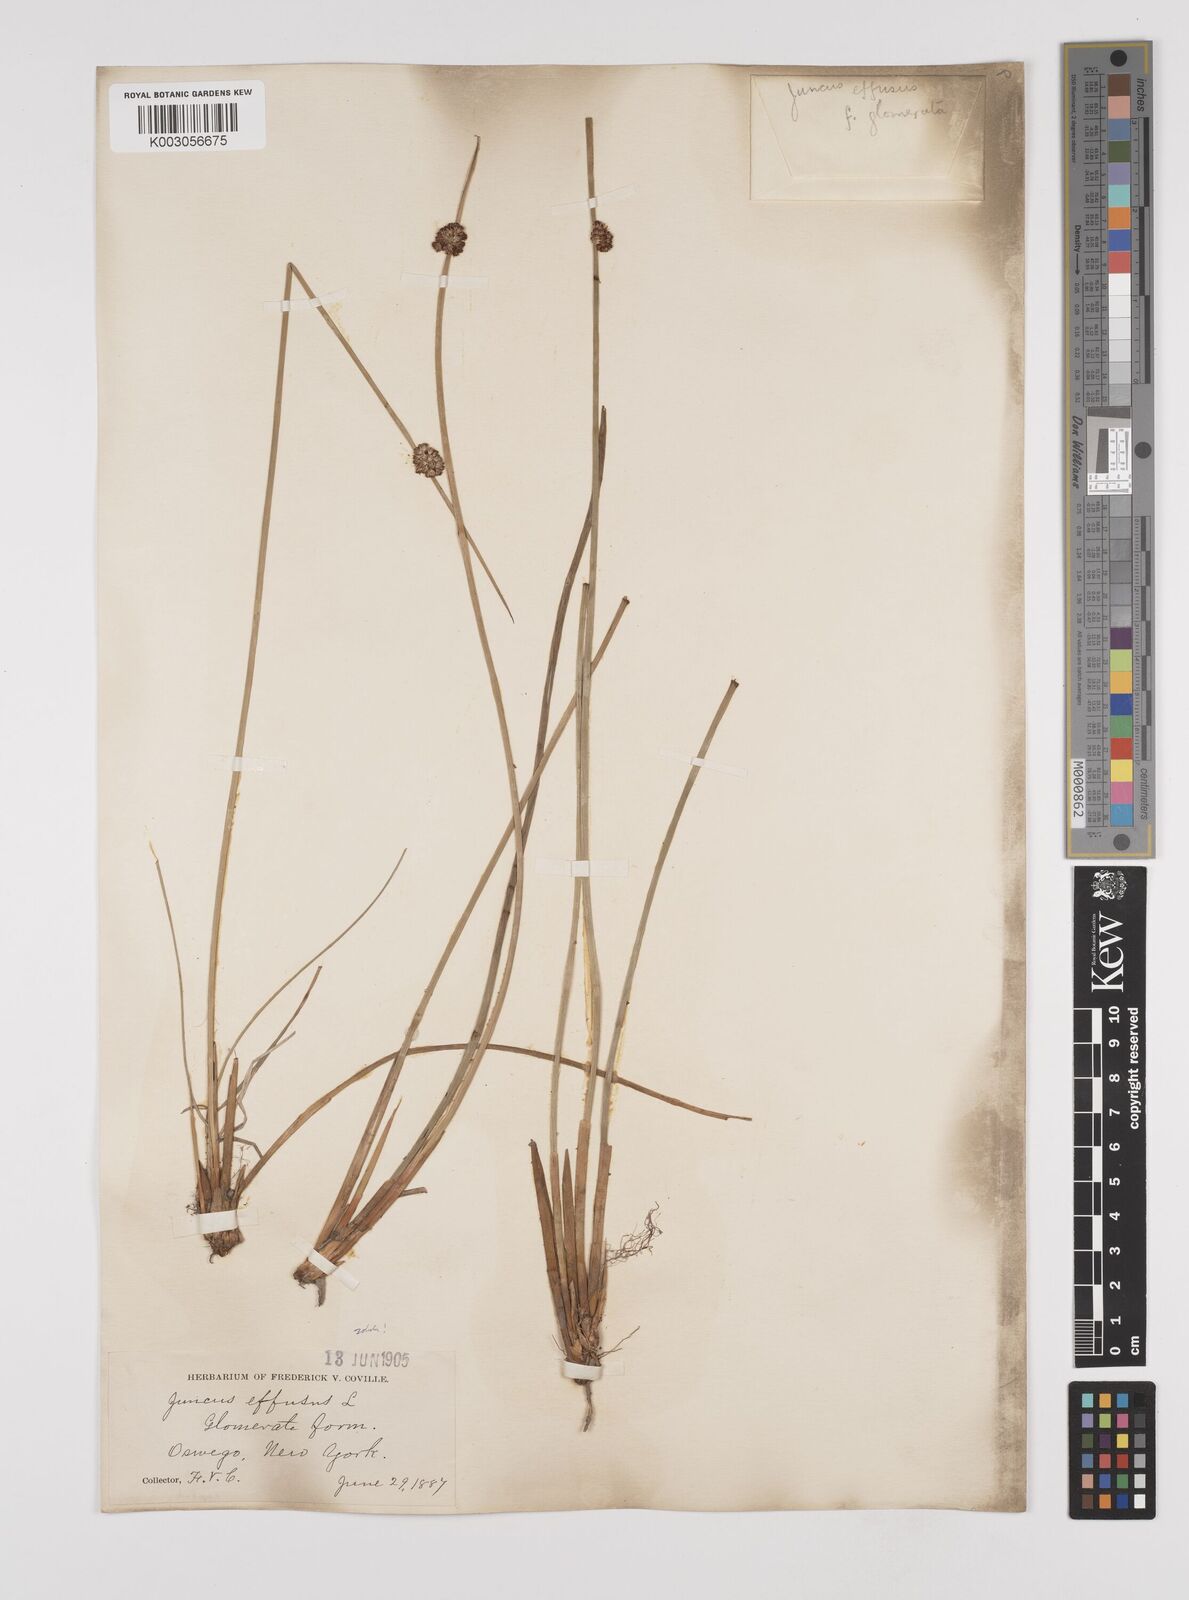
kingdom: Plantae
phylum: Tracheophyta
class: Liliopsida
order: Poales
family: Juncaceae
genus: Juncus
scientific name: Juncus effusus
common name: Soft rush
